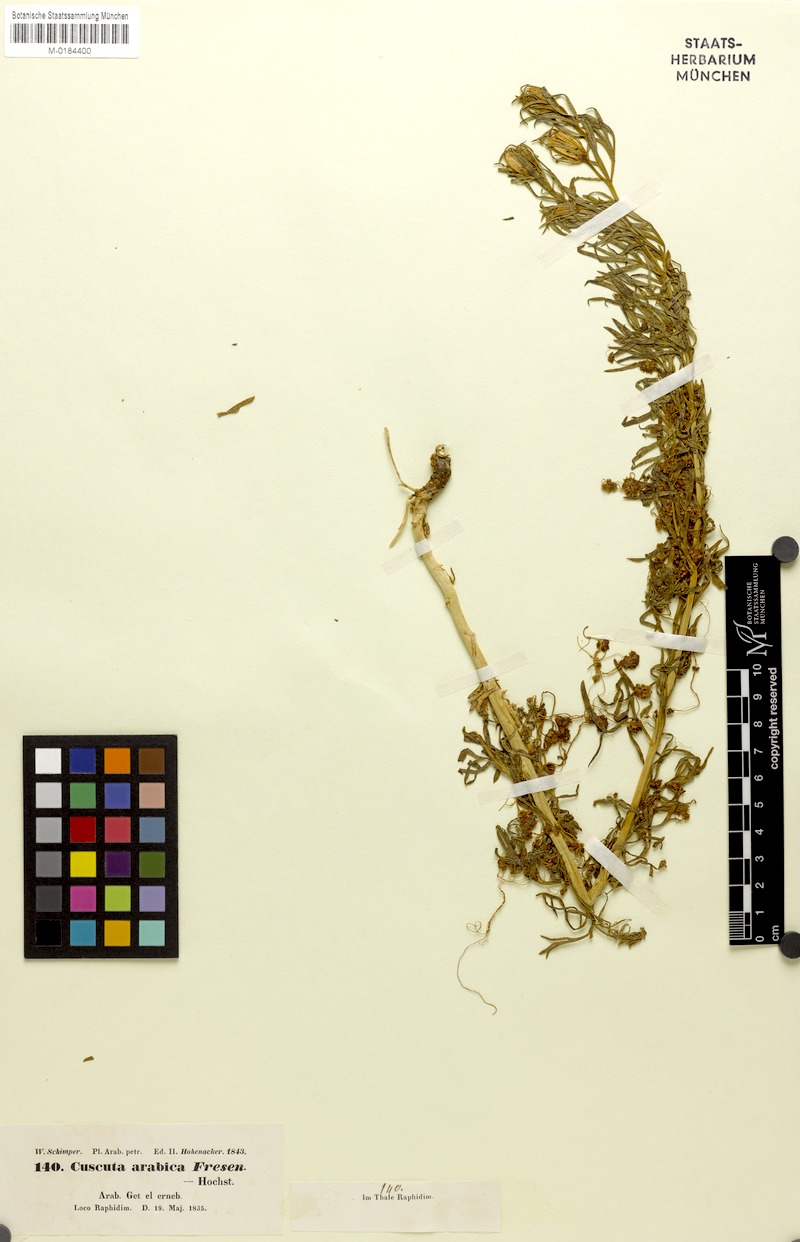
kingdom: Plantae
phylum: Tracheophyta
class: Magnoliopsida
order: Solanales
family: Convolvulaceae
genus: Cuscuta
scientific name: Cuscuta hyalina
